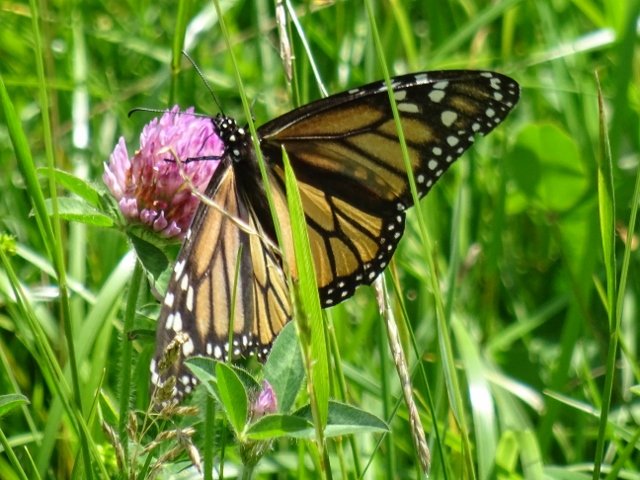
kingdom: Animalia
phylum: Arthropoda
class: Insecta
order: Lepidoptera
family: Nymphalidae
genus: Danaus
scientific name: Danaus plexippus
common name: Monarch
